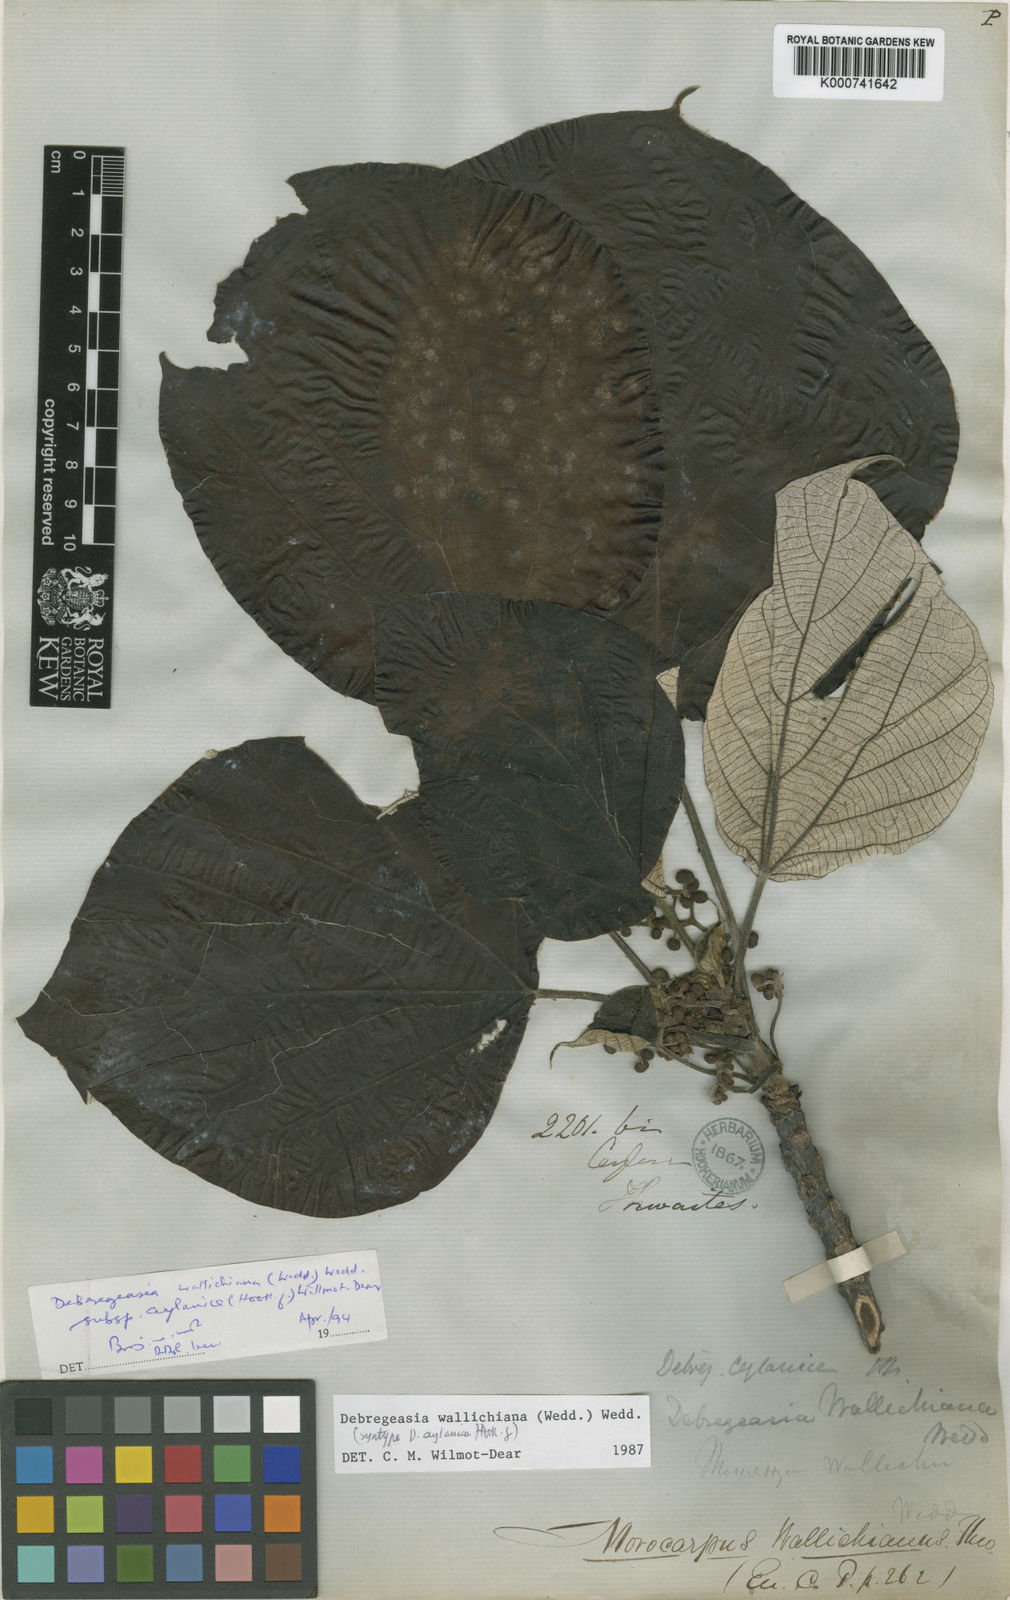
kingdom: Plantae
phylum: Tracheophyta
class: Magnoliopsida
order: Rosales
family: Urticaceae
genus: Debregeasia
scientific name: Debregeasia wallichiana
